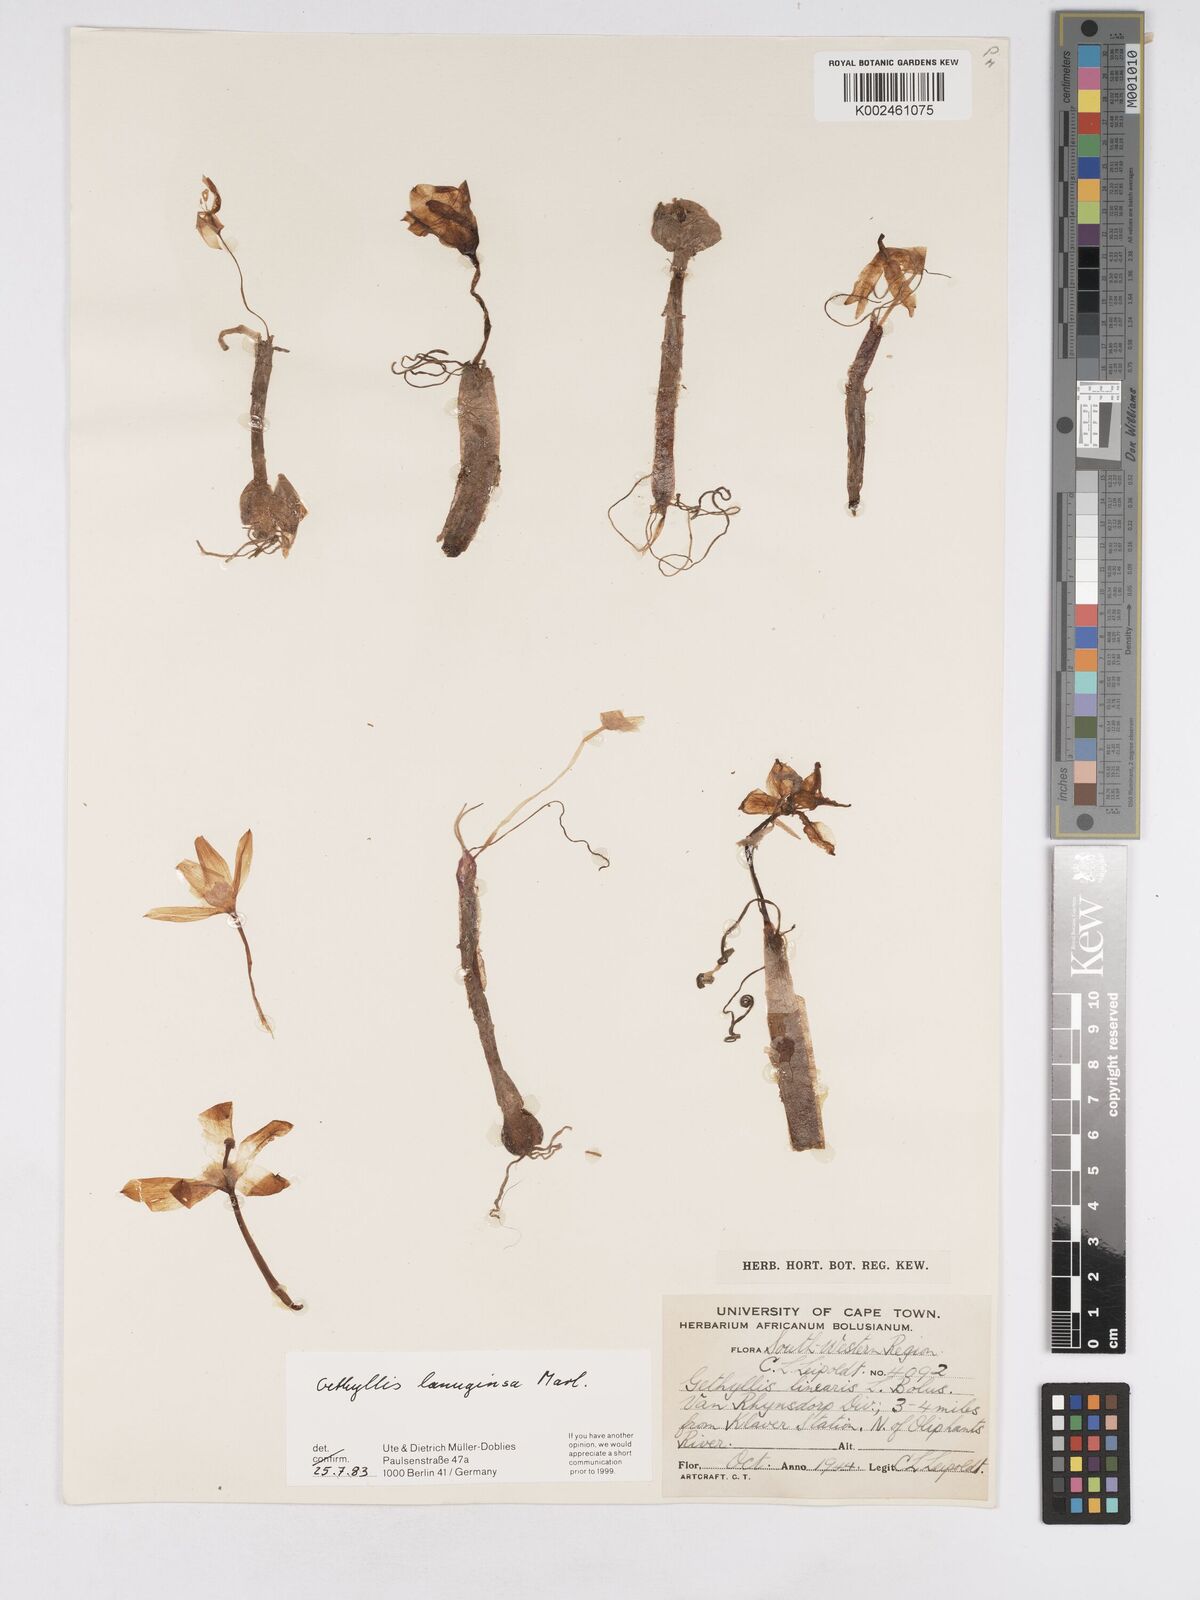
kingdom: Plantae
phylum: Tracheophyta
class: Liliopsida
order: Asparagales
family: Amaryllidaceae
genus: Gethyllis
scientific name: Gethyllis lanuginosa
